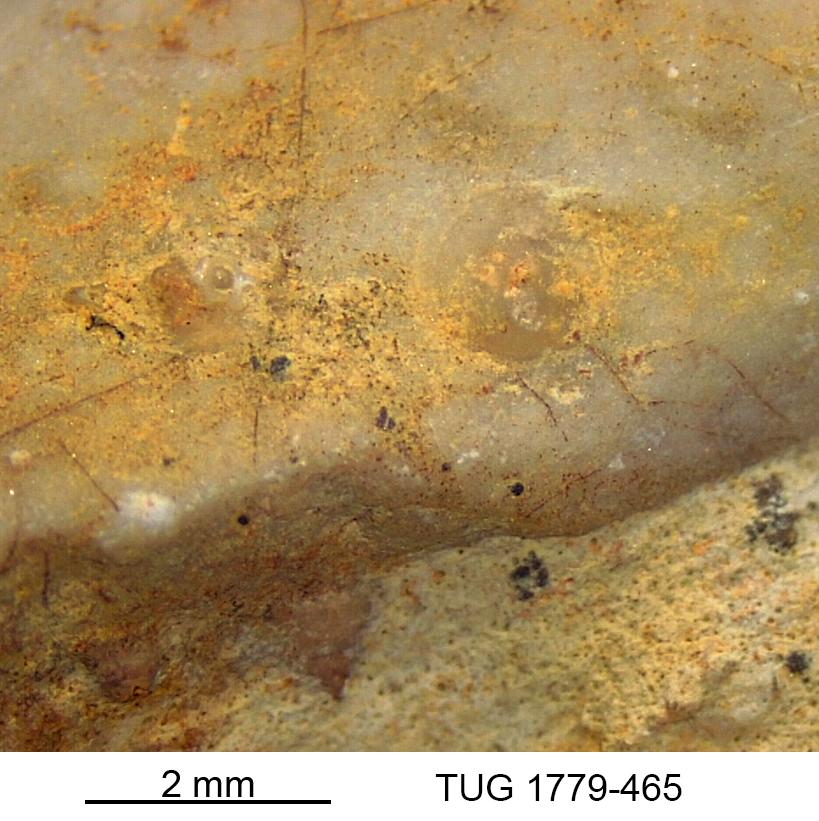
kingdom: Animalia
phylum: Bryozoa
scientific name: Bryozoa
